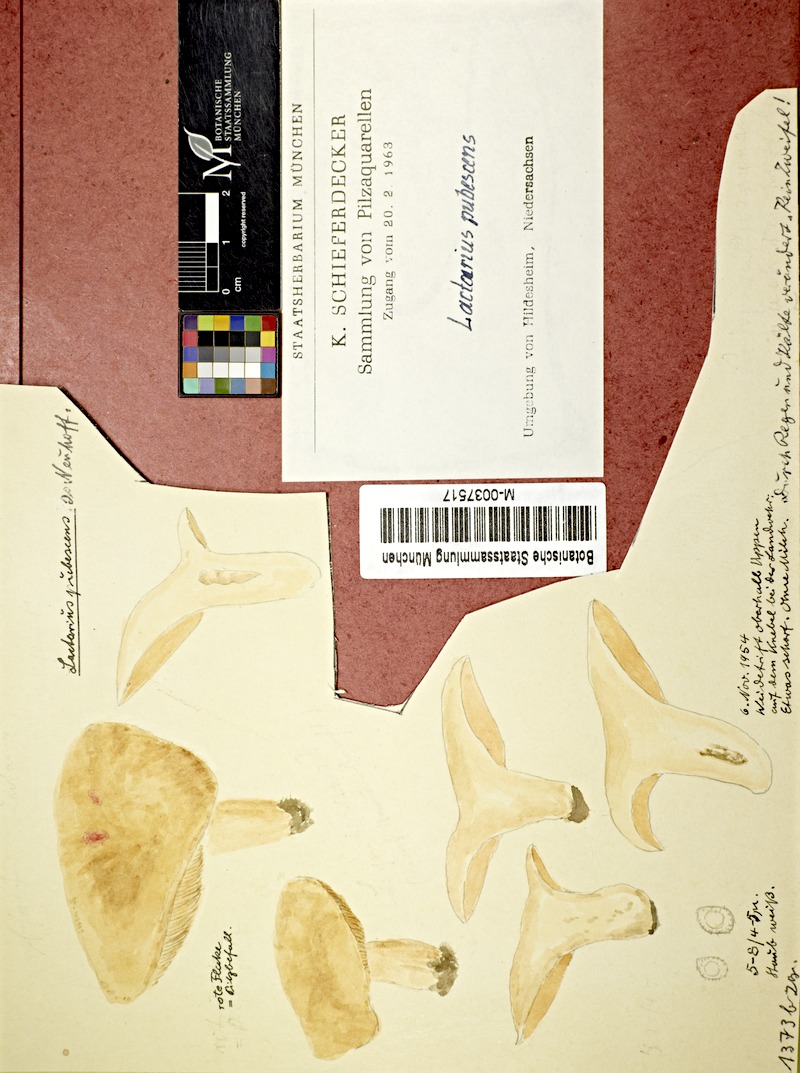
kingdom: Fungi
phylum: Basidiomycota
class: Agaricomycetes
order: Russulales
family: Russulaceae
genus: Lactarius
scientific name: Lactarius pubescens
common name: Bearded milkcap
